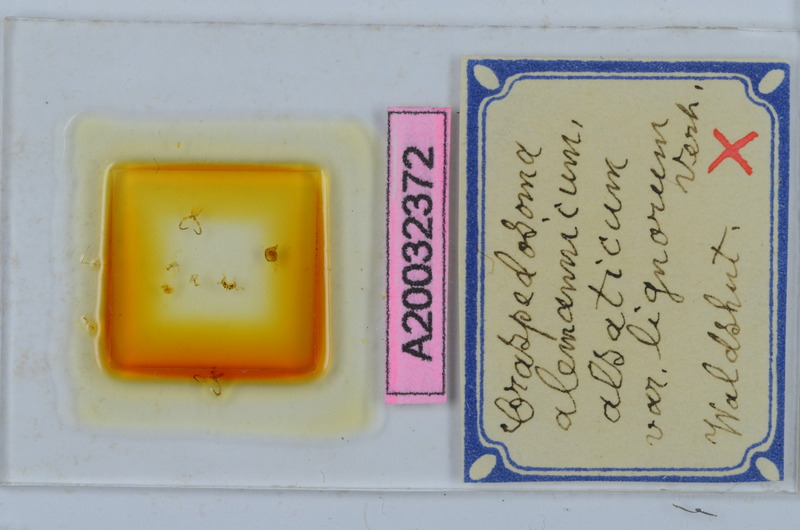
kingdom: Animalia
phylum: Arthropoda
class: Diplopoda
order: Chordeumatida
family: Craspedosomatidae
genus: Craspedosoma
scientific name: Craspedosoma rawlinsii
